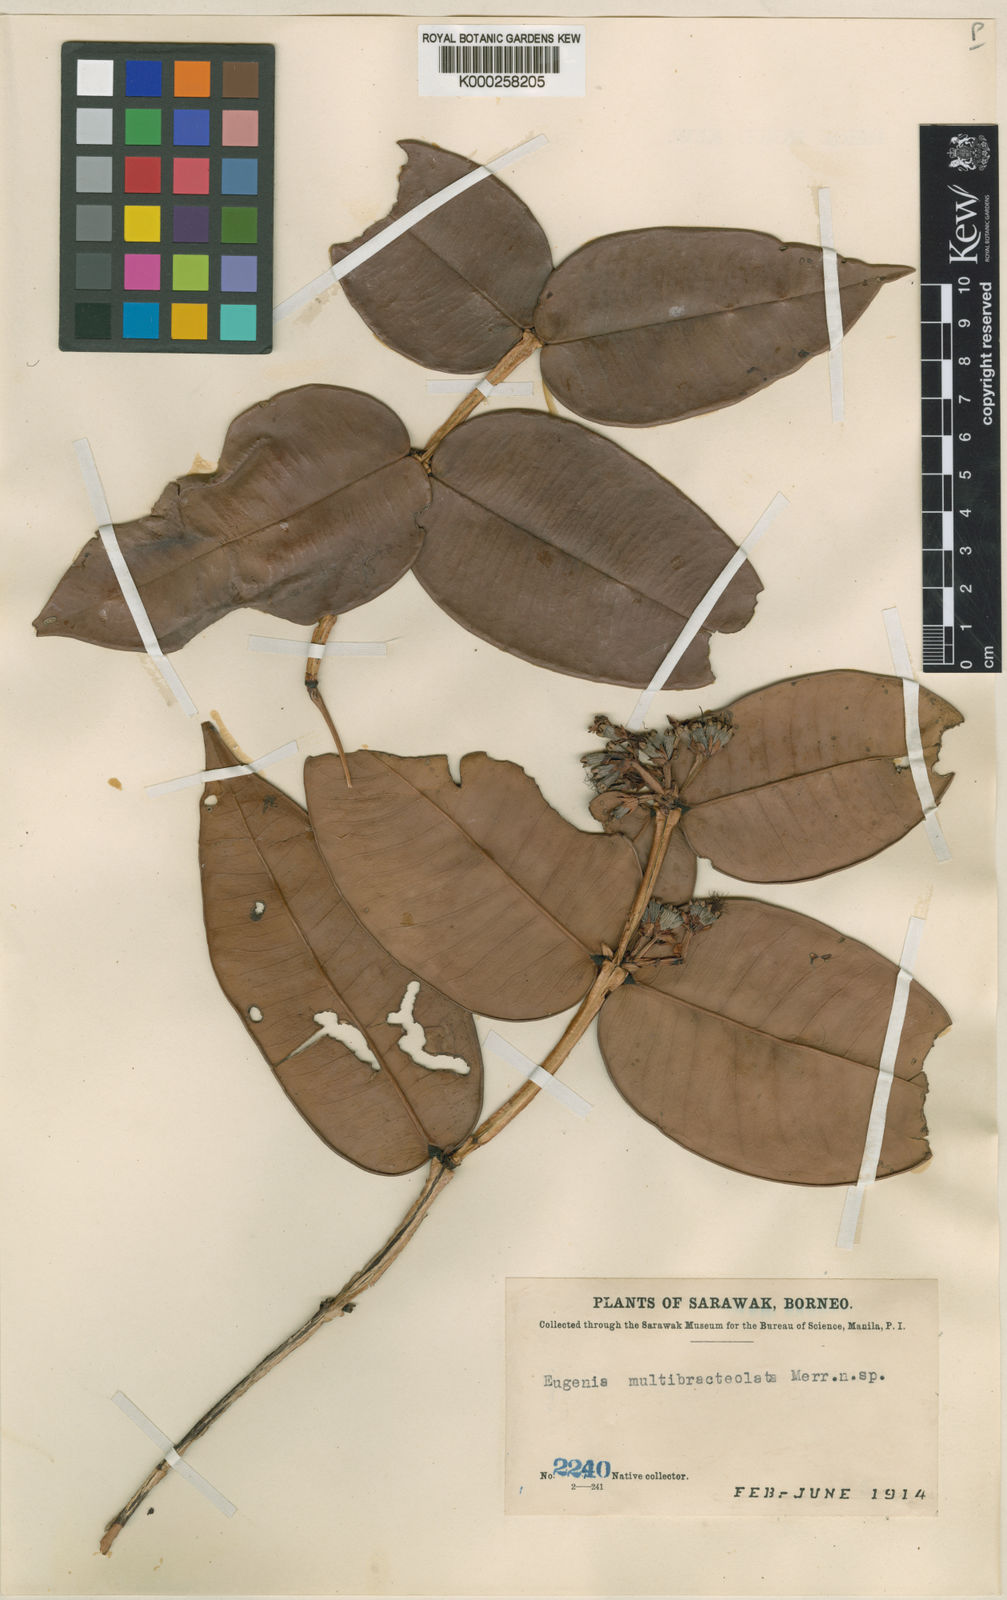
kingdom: Plantae
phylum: Tracheophyta
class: Magnoliopsida
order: Myrtales
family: Myrtaceae
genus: Syzygium
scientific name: Syzygium multibracteolatum
